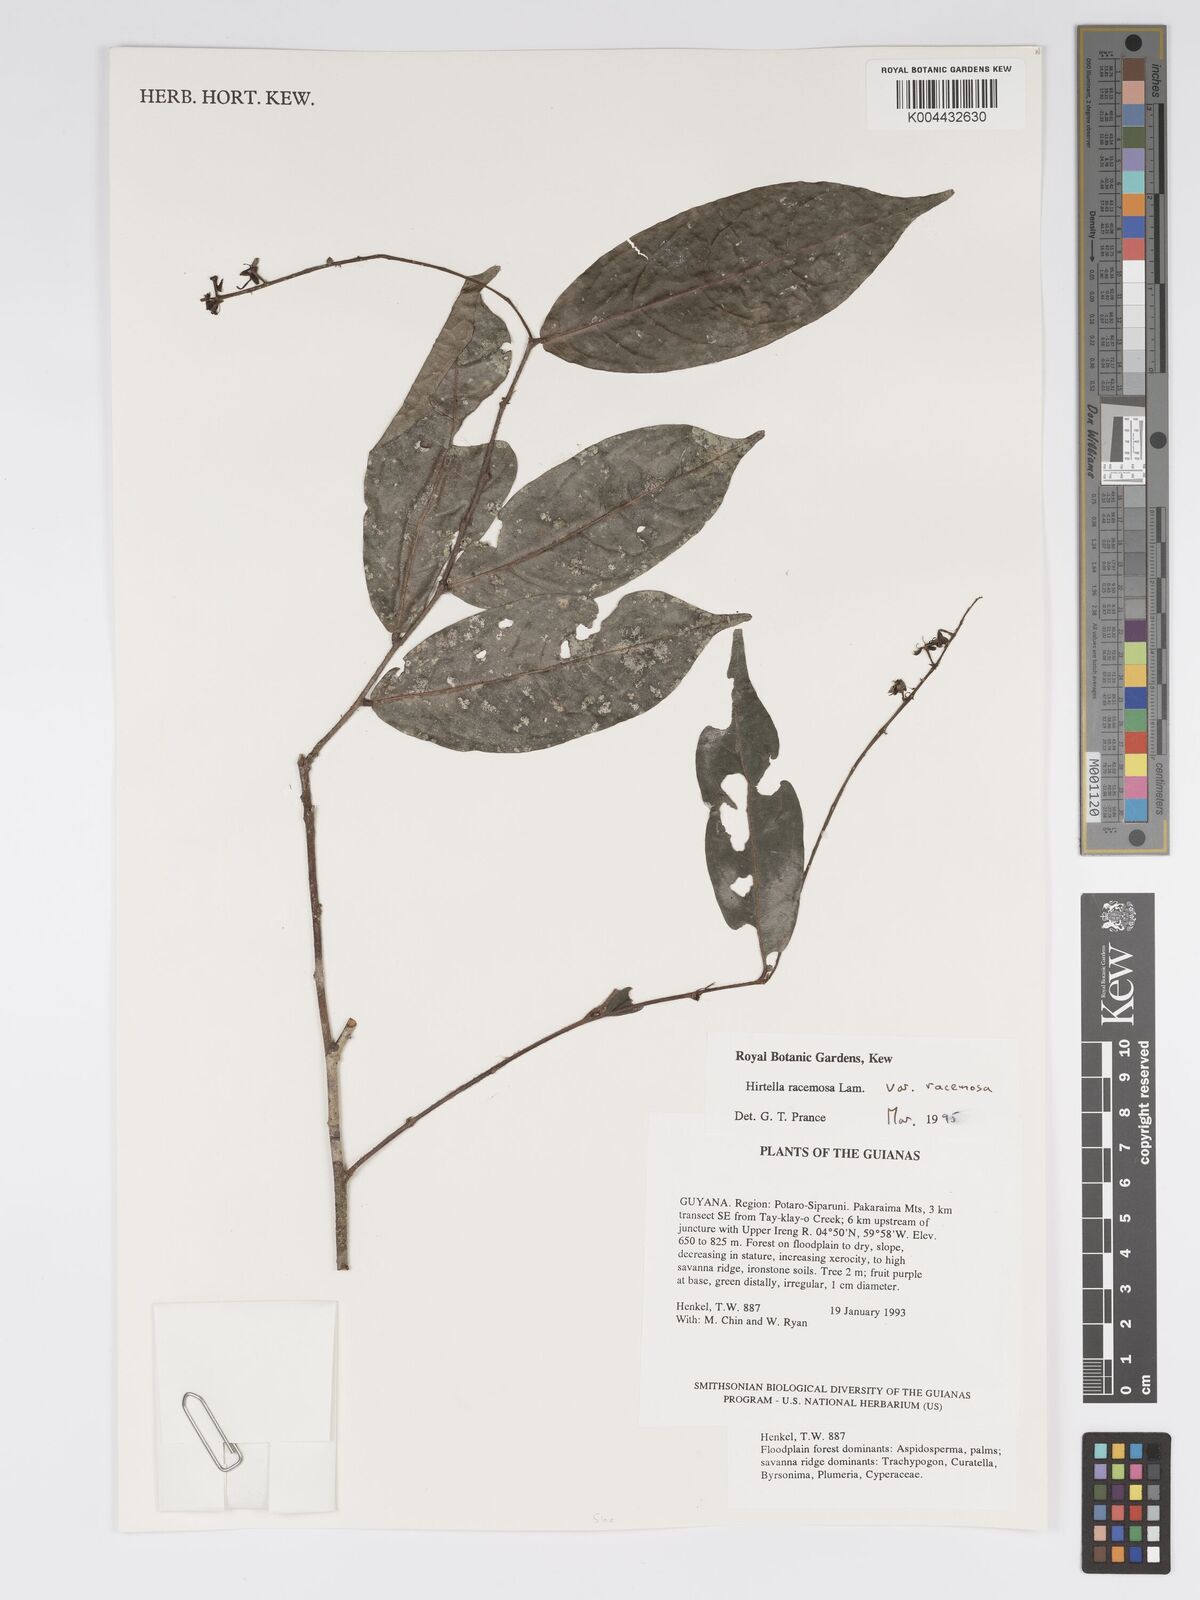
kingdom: Plantae
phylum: Tracheophyta
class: Magnoliopsida
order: Malpighiales
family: Chrysobalanaceae
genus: Hirtella
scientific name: Hirtella racemosa
